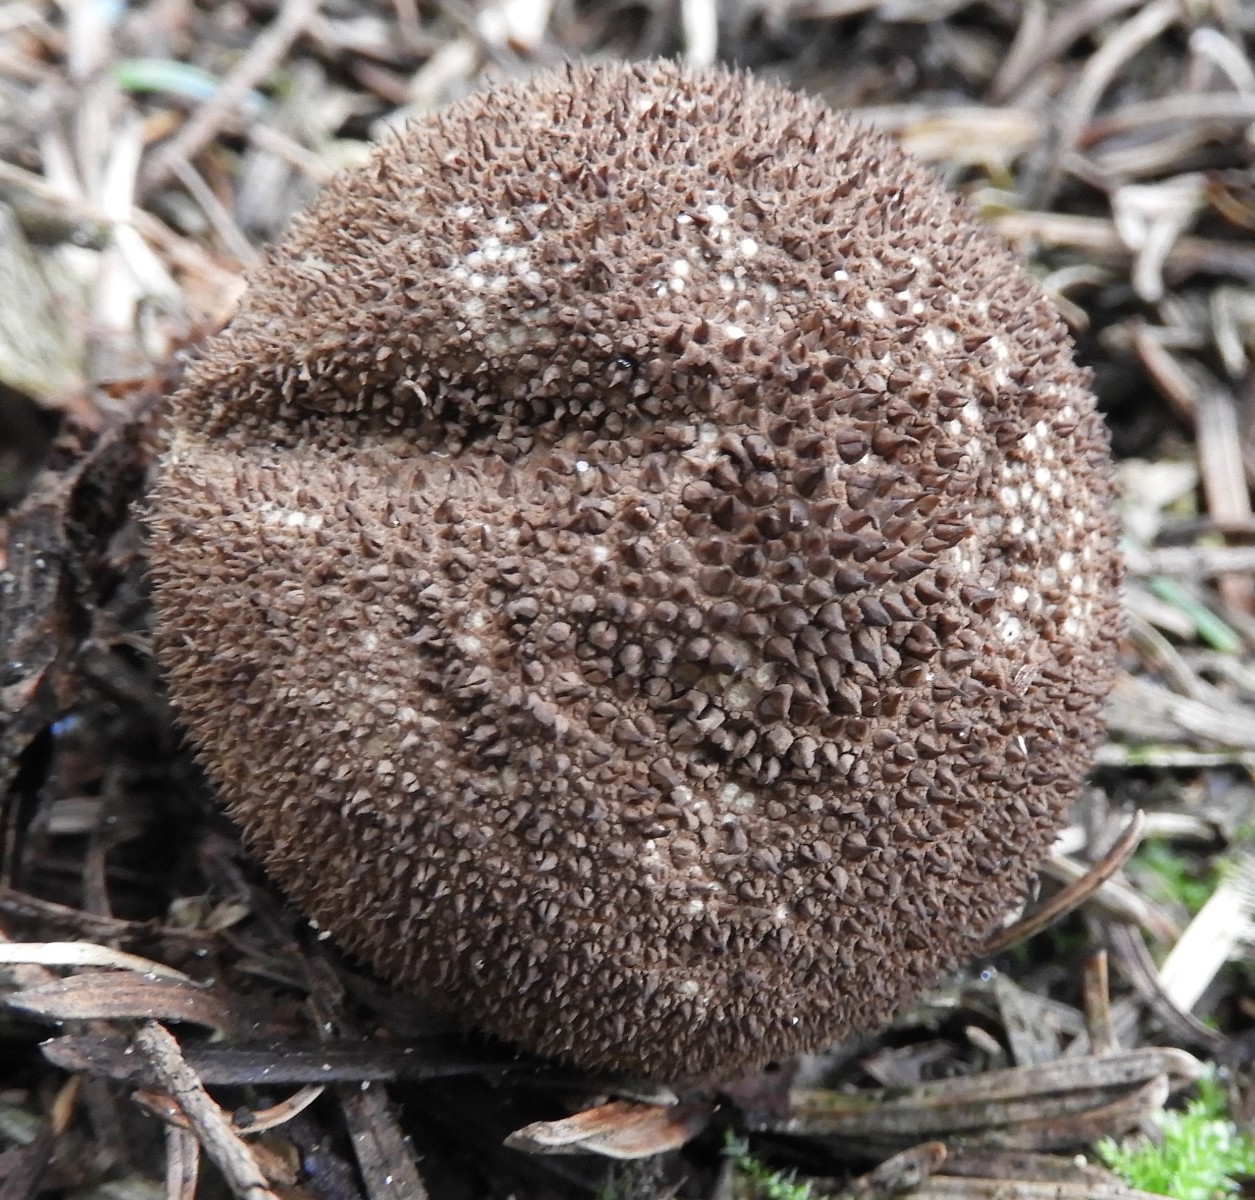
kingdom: Fungi
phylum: Basidiomycota
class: Agaricomycetes
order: Agaricales
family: Lycoperdaceae
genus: Lycoperdon
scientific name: Lycoperdon nigrescens
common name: sortagtig støvbold
